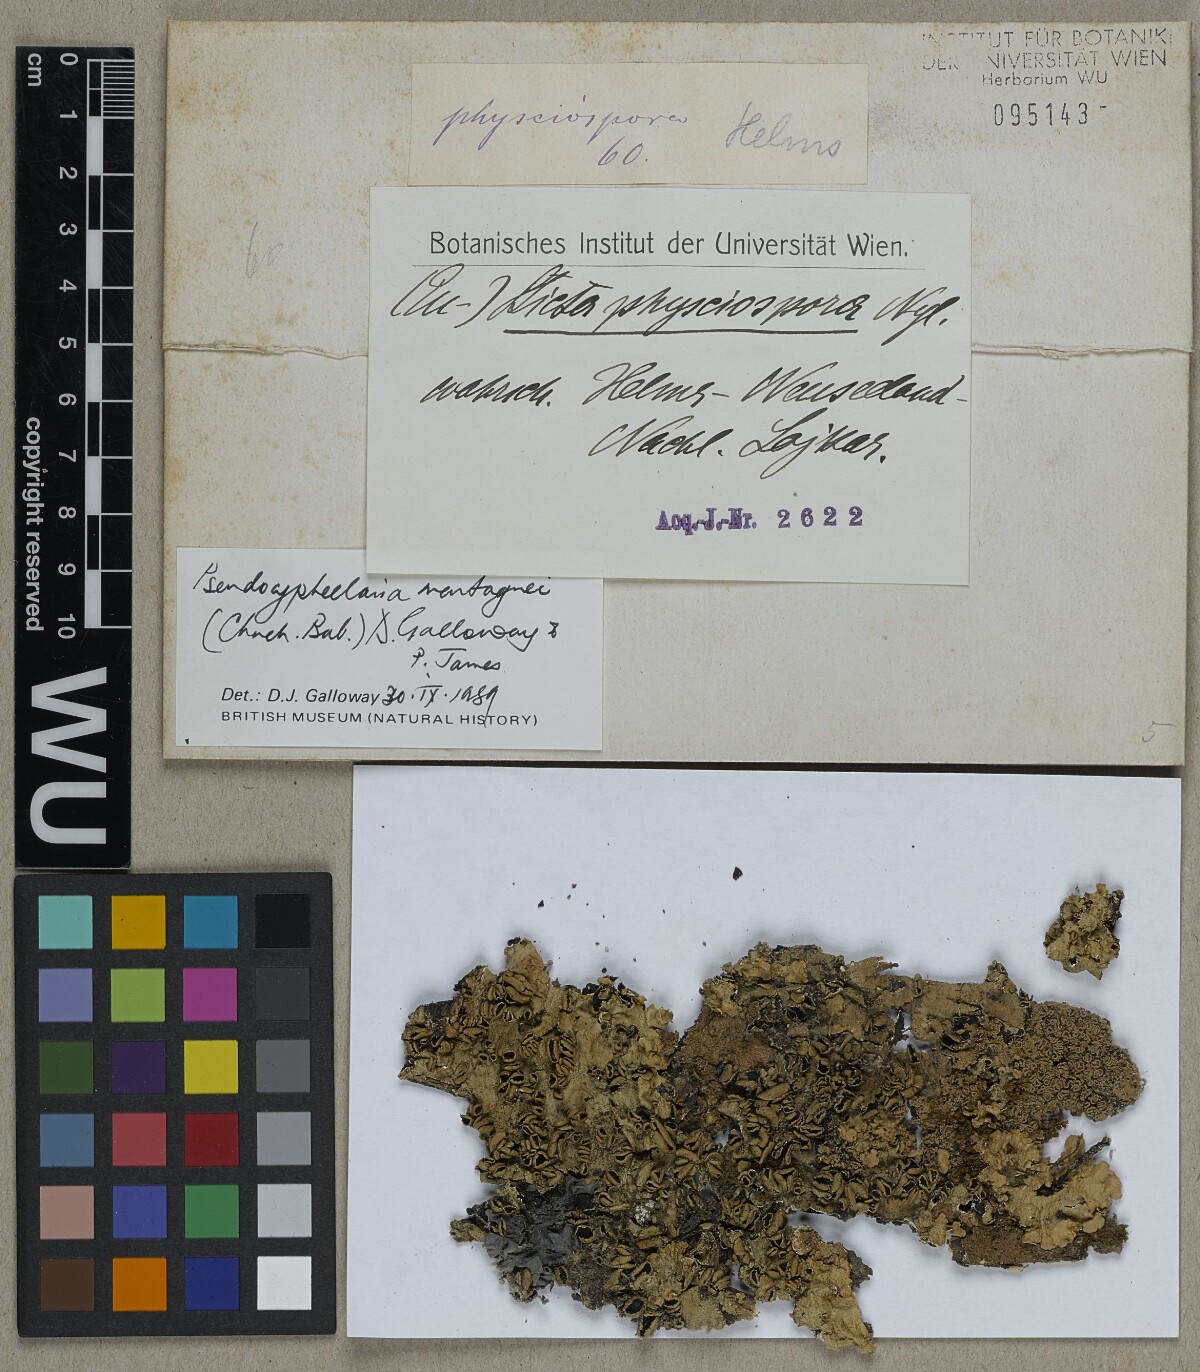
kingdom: Fungi
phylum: Ascomycota
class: Lecanoromycetes
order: Peltigerales
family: Lobariaceae
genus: Pseudocyphellaria
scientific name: Pseudocyphellaria montagnei
